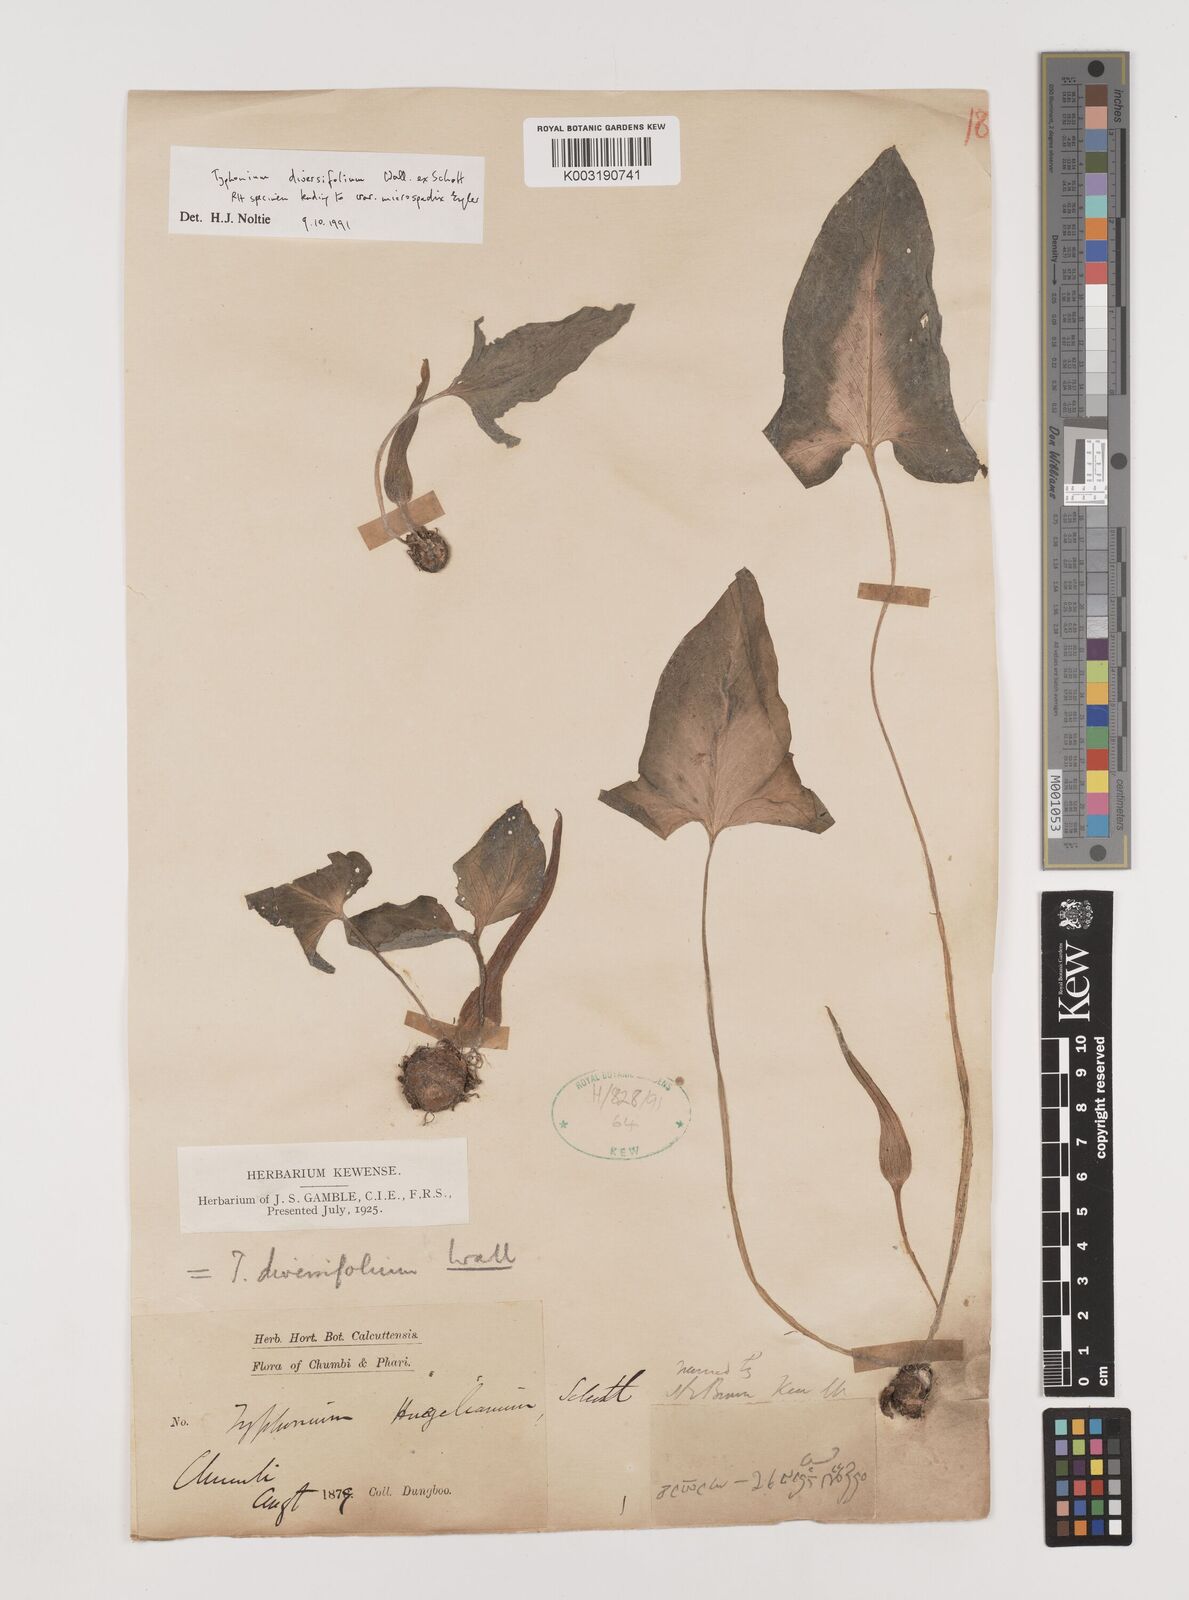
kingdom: Plantae
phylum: Tracheophyta
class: Liliopsida
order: Alismatales
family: Araceae
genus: Sauromatum
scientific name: Sauromatum diversifolium
